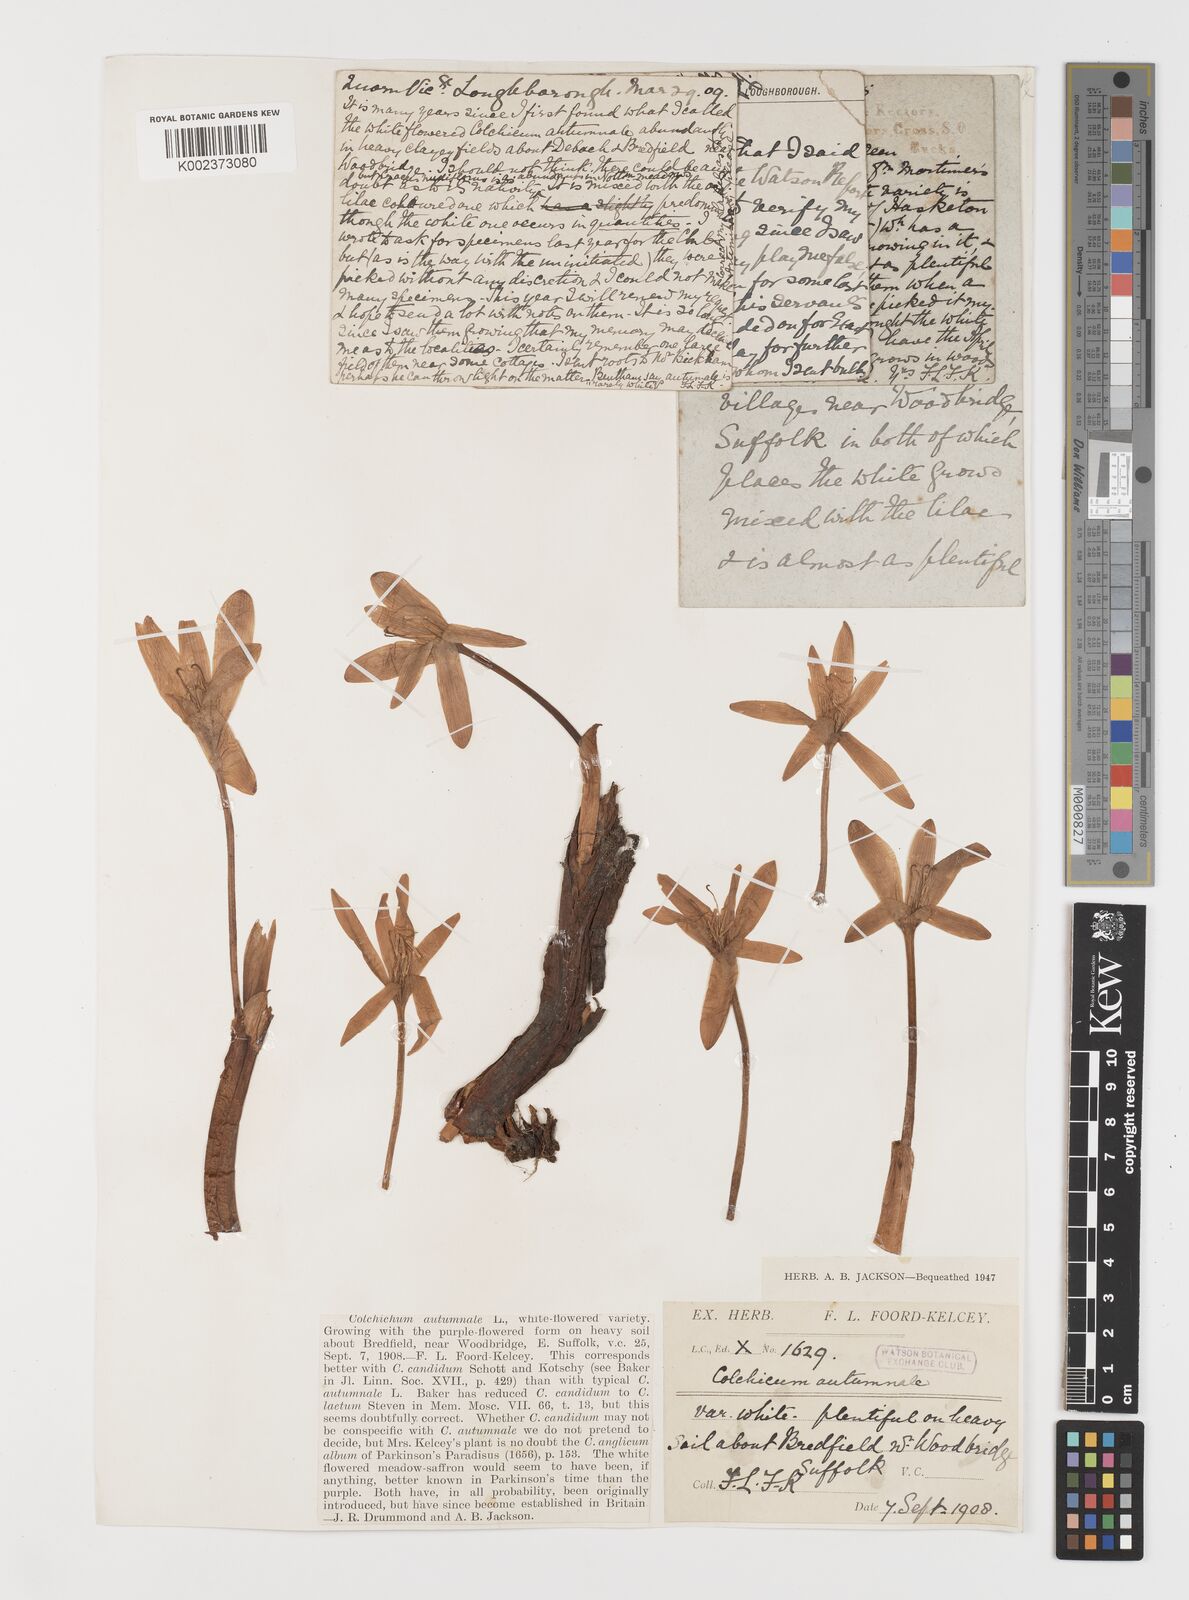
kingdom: Plantae
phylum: Tracheophyta
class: Liliopsida
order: Liliales
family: Colchicaceae
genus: Colchicum
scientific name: Colchicum autumnale
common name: Autumn crocus
